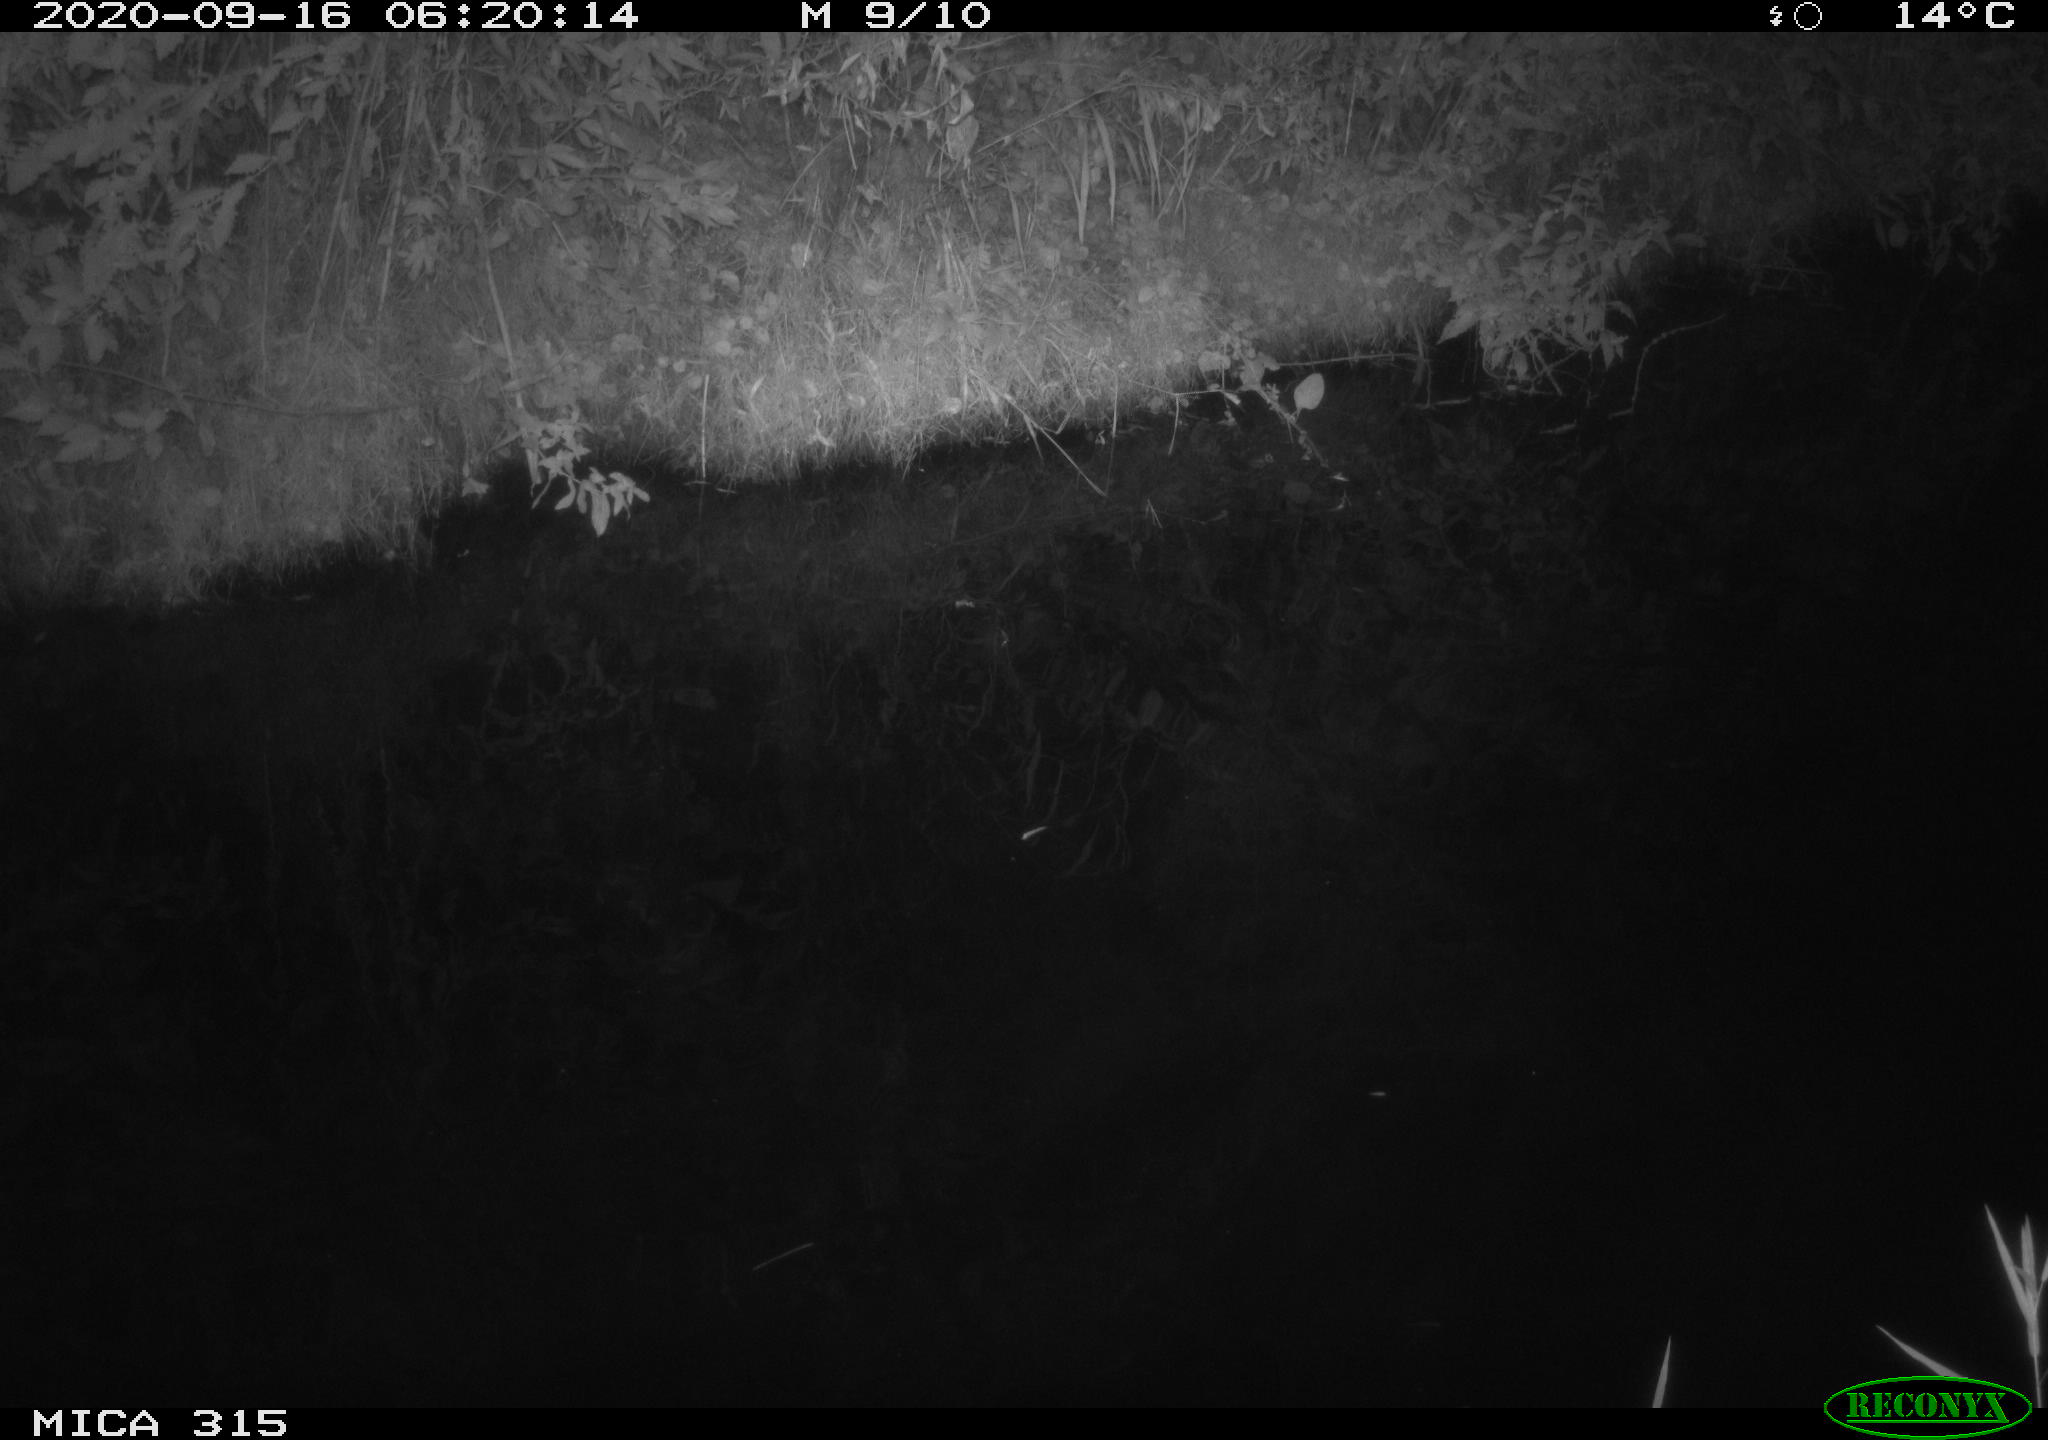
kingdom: Animalia
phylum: Chordata
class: Aves
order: Anseriformes
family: Anatidae
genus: Anas
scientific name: Anas platyrhynchos
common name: Mallard
